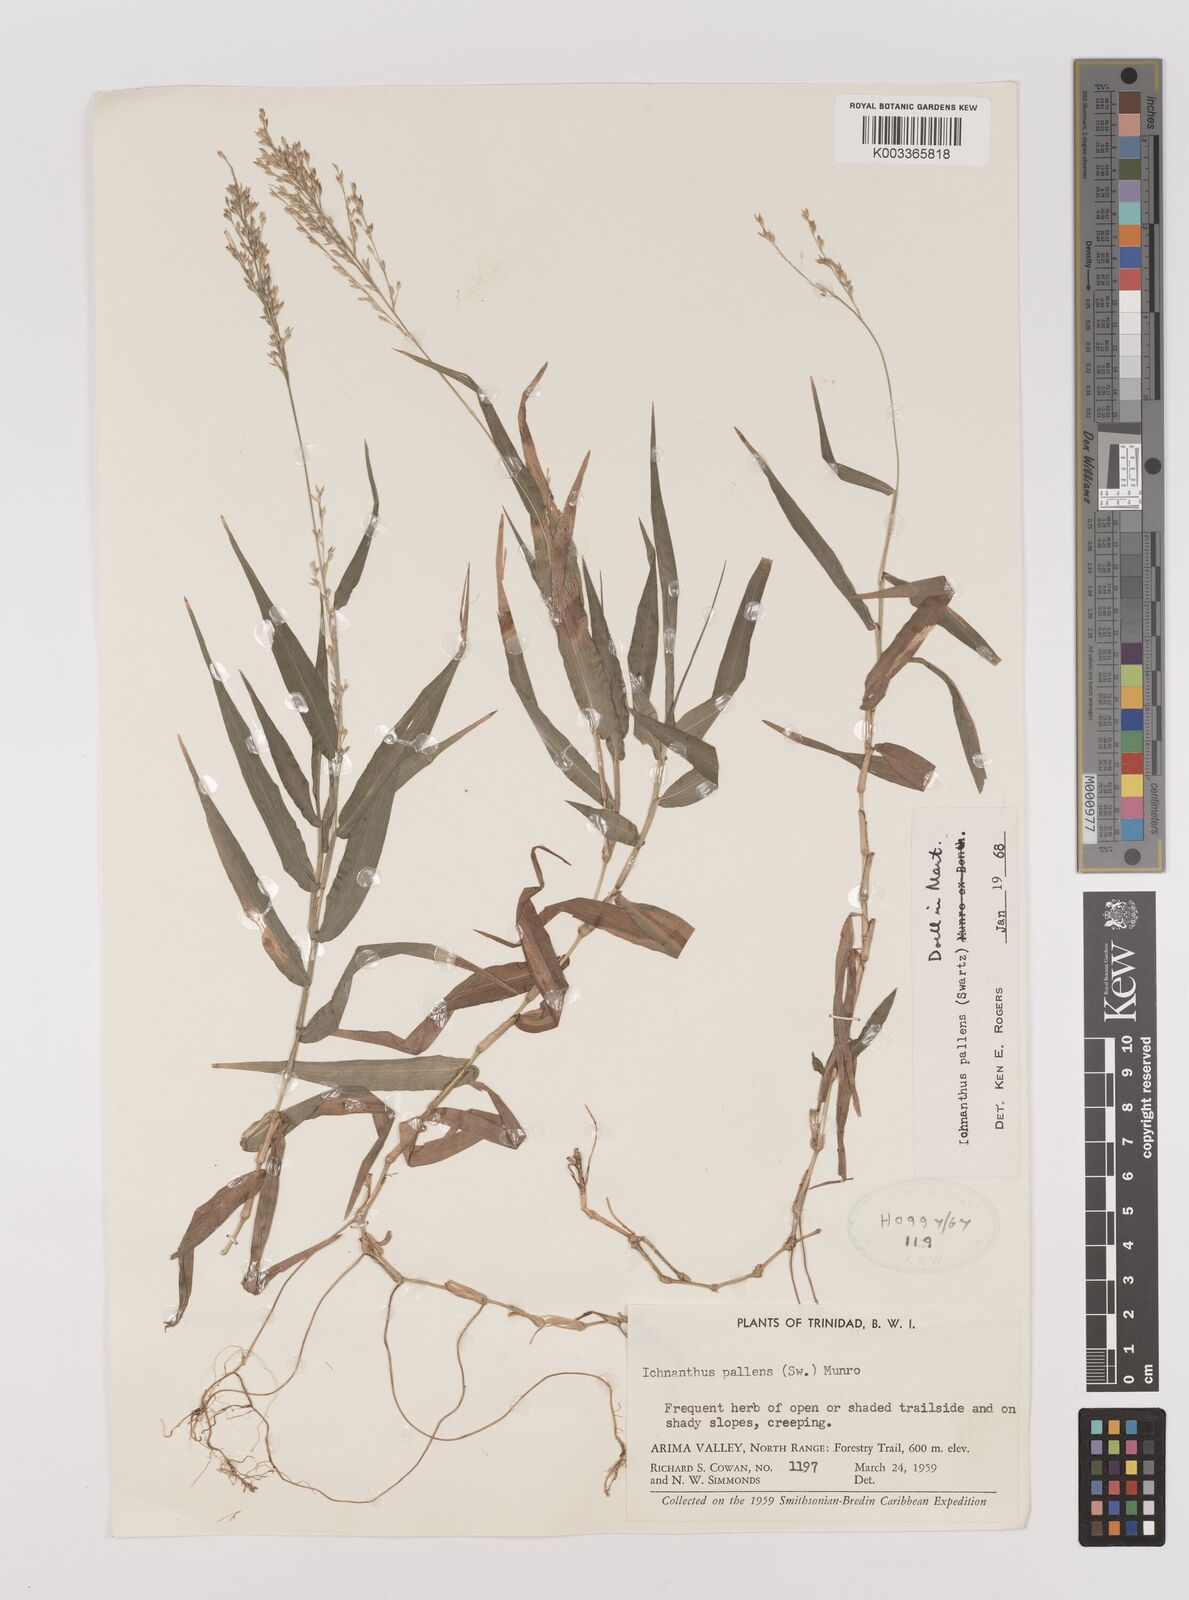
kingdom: Plantae
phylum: Tracheophyta
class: Liliopsida
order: Poales
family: Poaceae
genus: Ichnanthus
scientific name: Ichnanthus pallens
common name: Water grass
